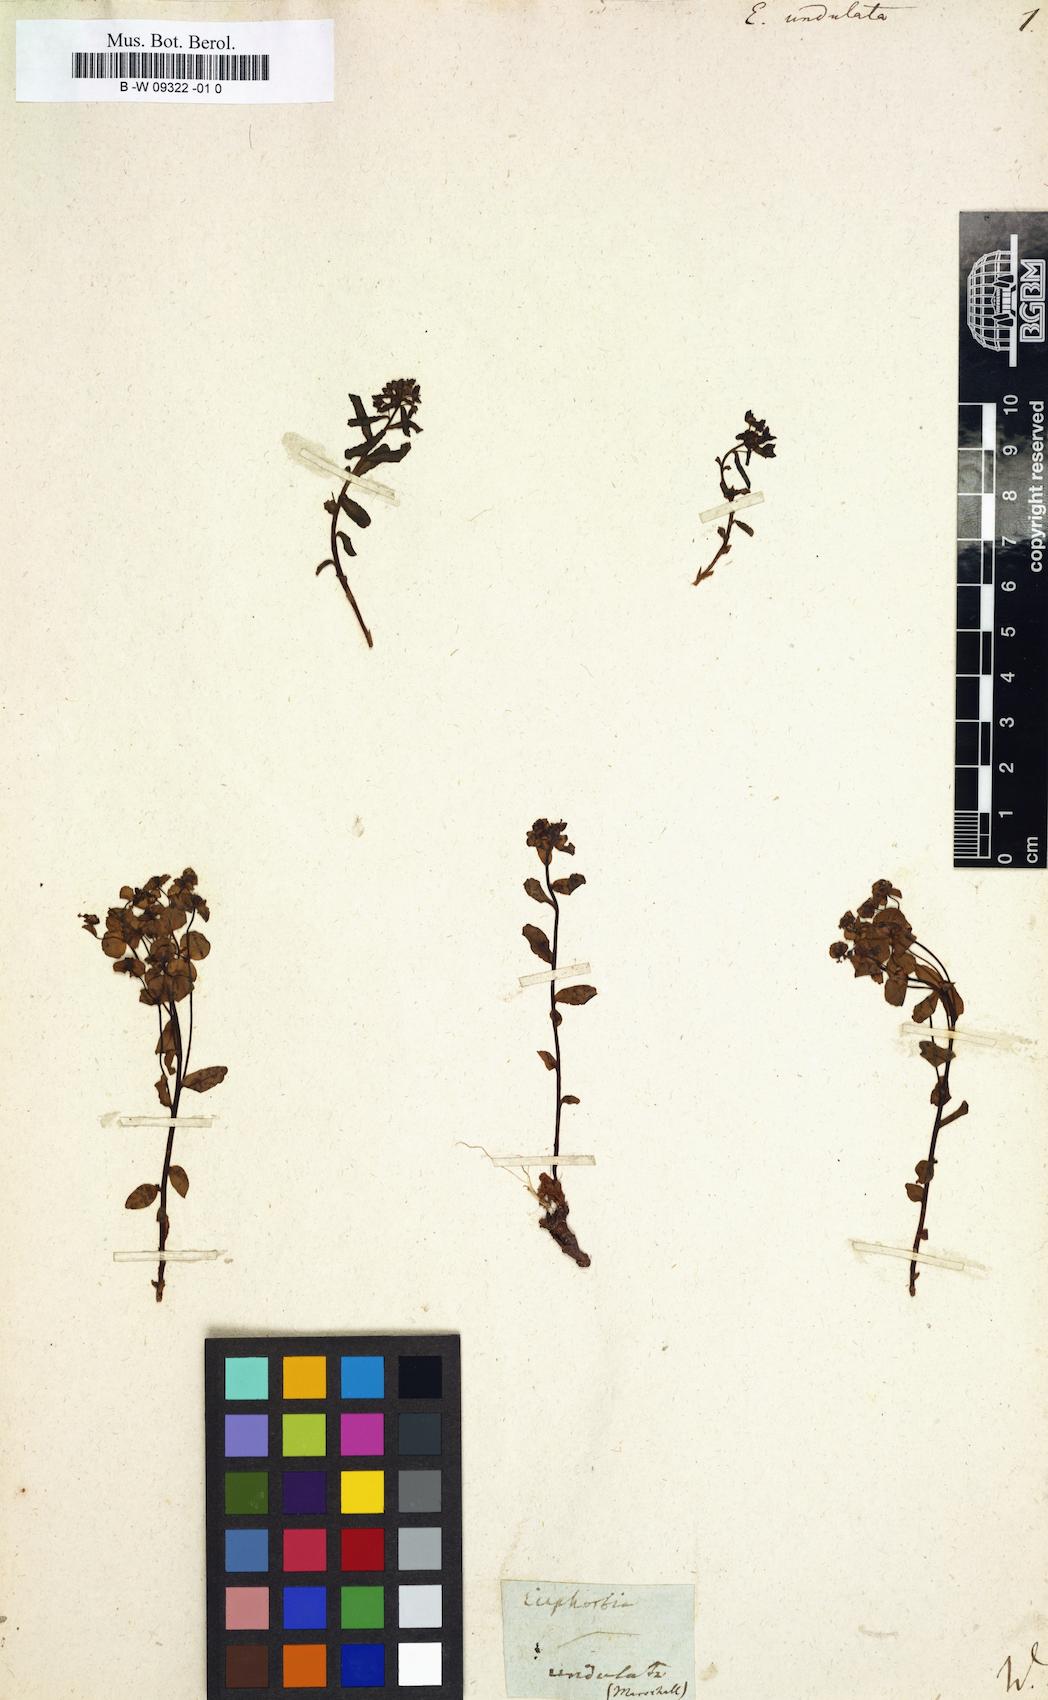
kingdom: Plantae
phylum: Tracheophyta
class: Magnoliopsida
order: Malpighiales
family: Euphorbiaceae
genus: Euphorbia
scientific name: Euphorbia undulata
